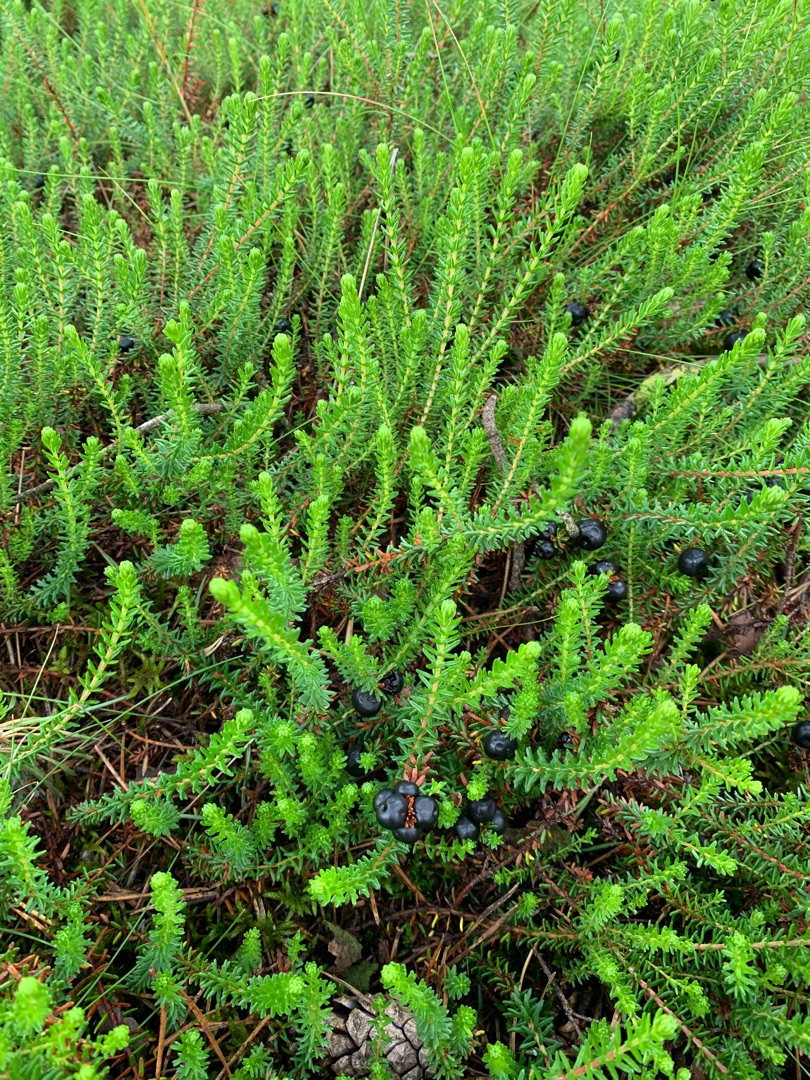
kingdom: Plantae
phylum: Tracheophyta
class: Magnoliopsida
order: Ericales
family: Ericaceae
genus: Empetrum
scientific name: Empetrum nigrum
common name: Revling
